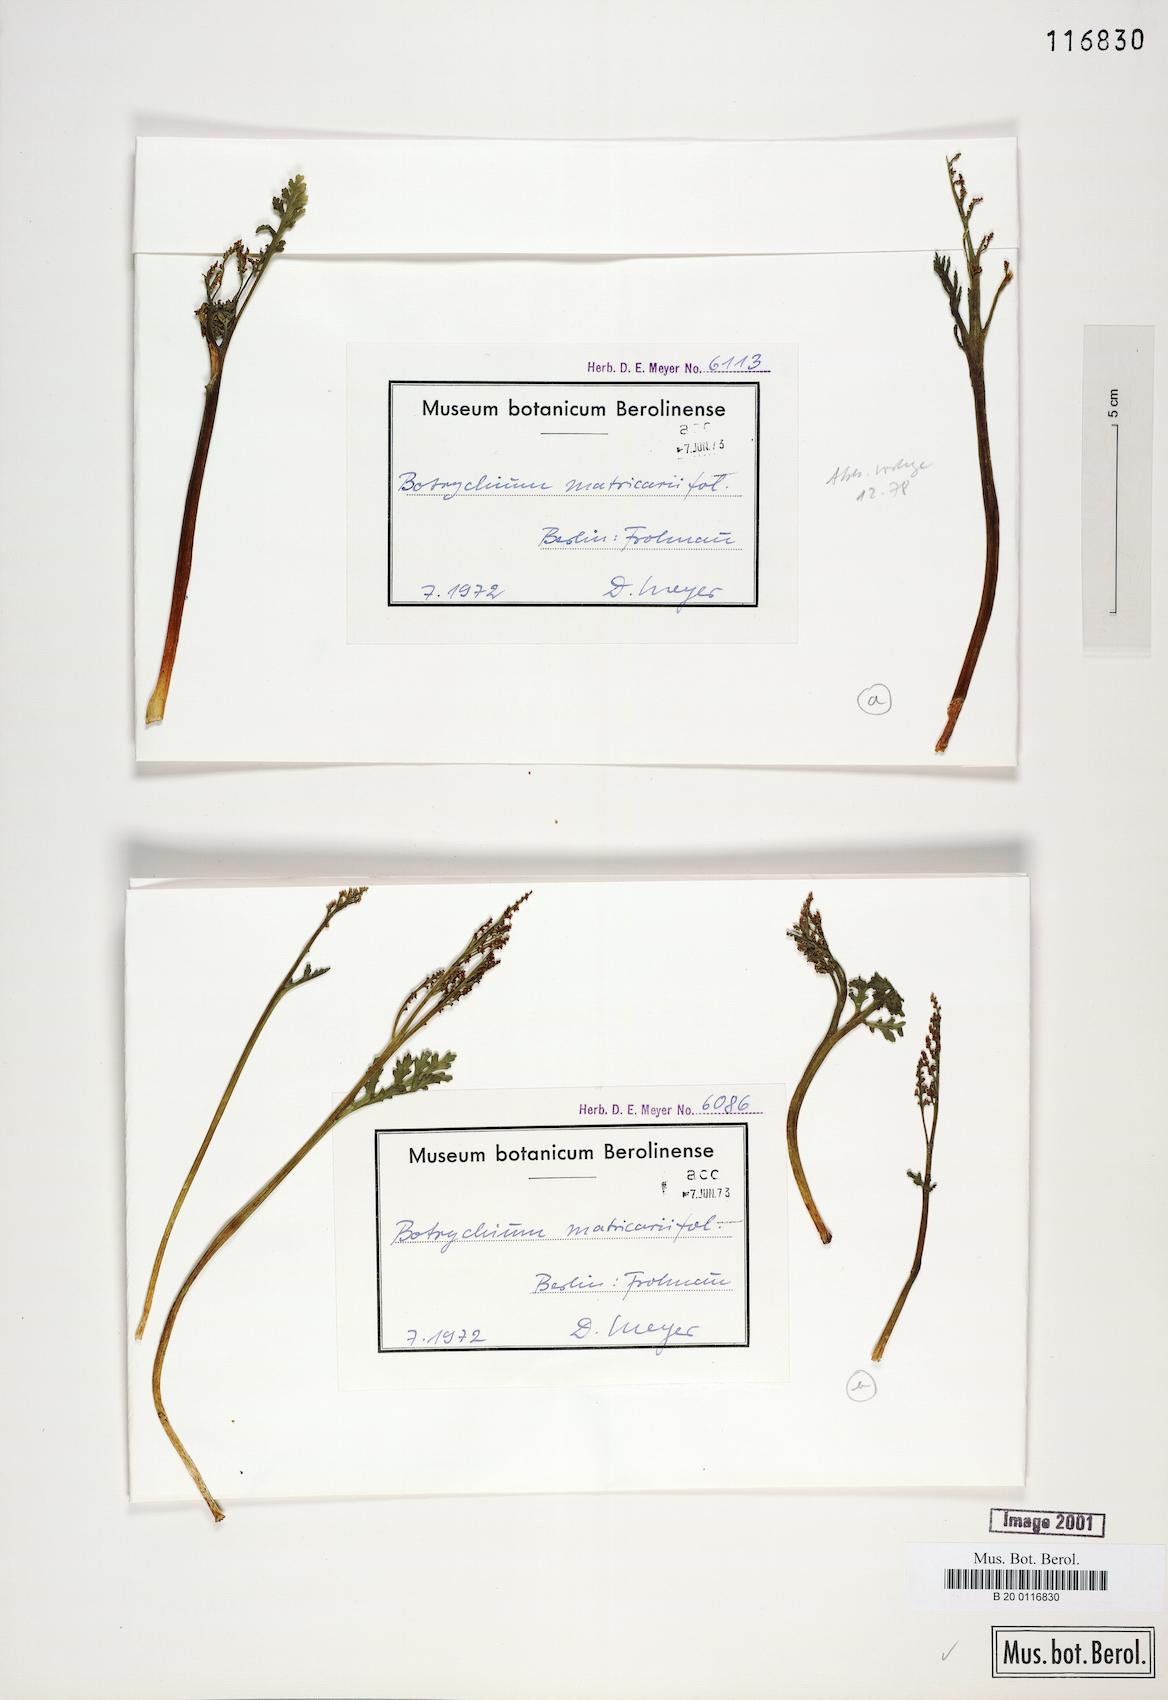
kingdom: Plantae
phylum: Tracheophyta
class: Polypodiopsida
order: Ophioglossales
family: Ophioglossaceae
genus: Botrychium
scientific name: Botrychium matricariifolium
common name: Branched moonwort
